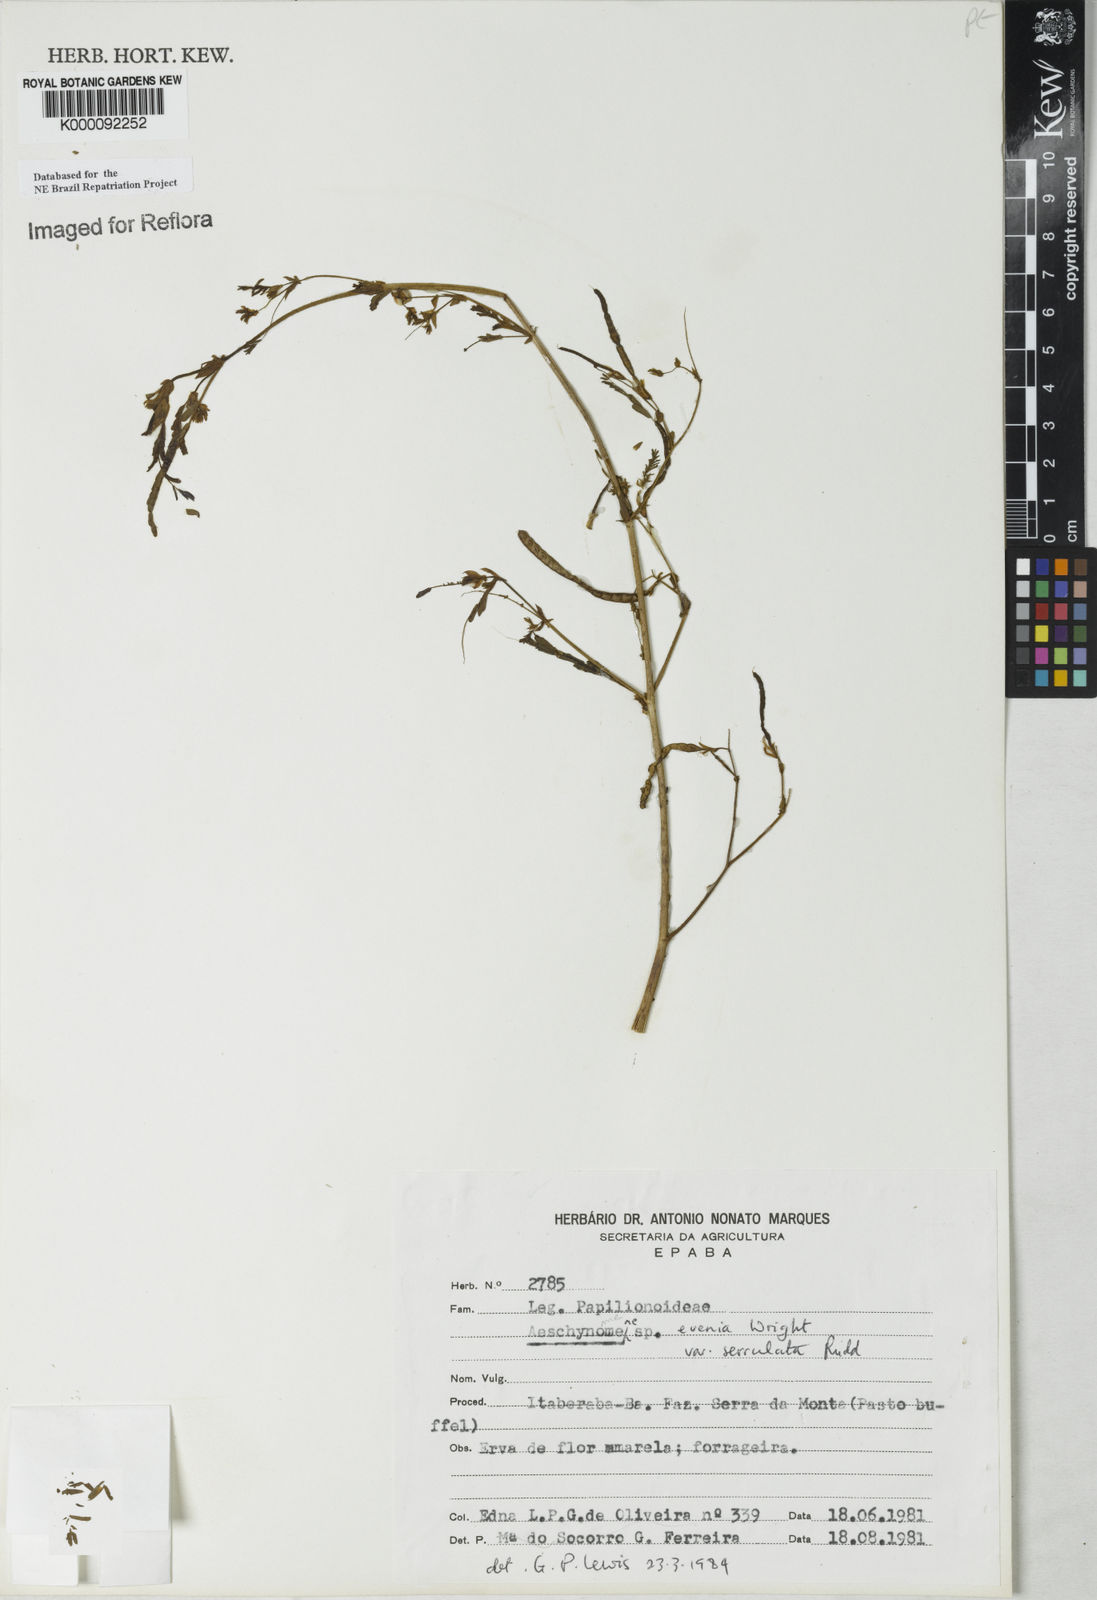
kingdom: Plantae
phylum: Tracheophyta
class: Magnoliopsida
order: Fabales
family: Fabaceae
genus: Aeschynomene
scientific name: Aeschynomene evenia
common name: Shrubby jointvetch
